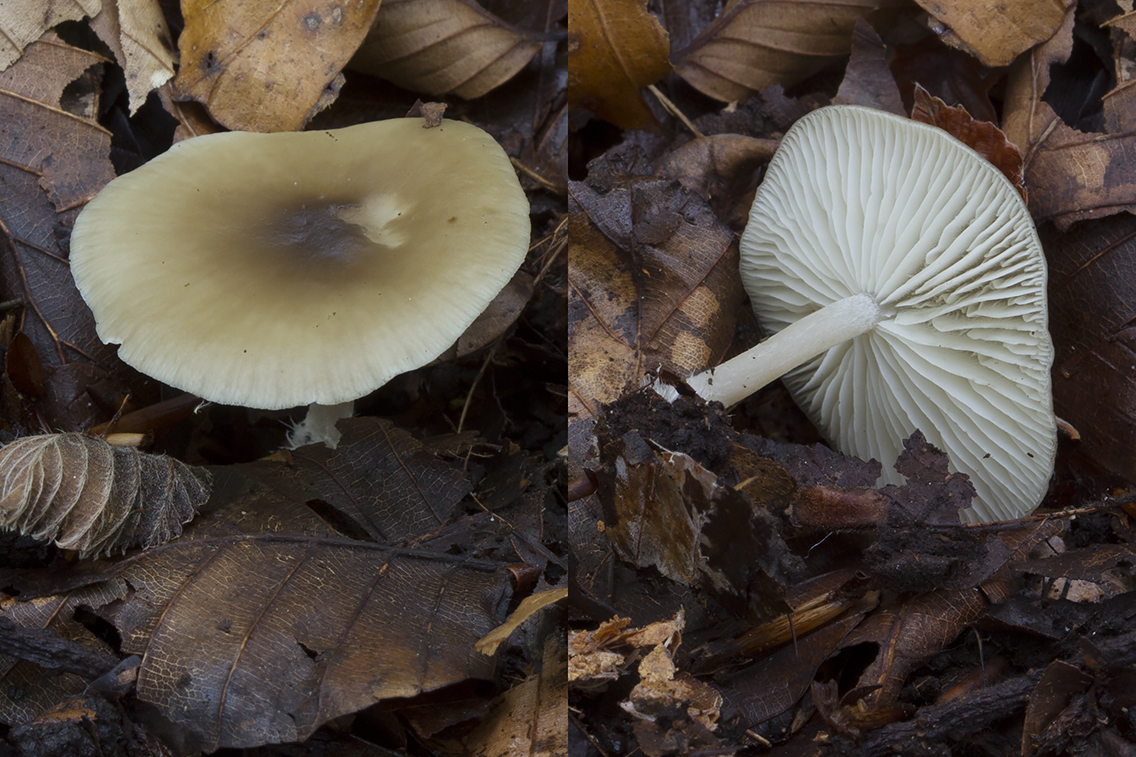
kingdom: Fungi
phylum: Basidiomycota
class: Agaricomycetes
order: Agaricales
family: Lyophyllaceae
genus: Tephrocybe
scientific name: Tephrocybe
